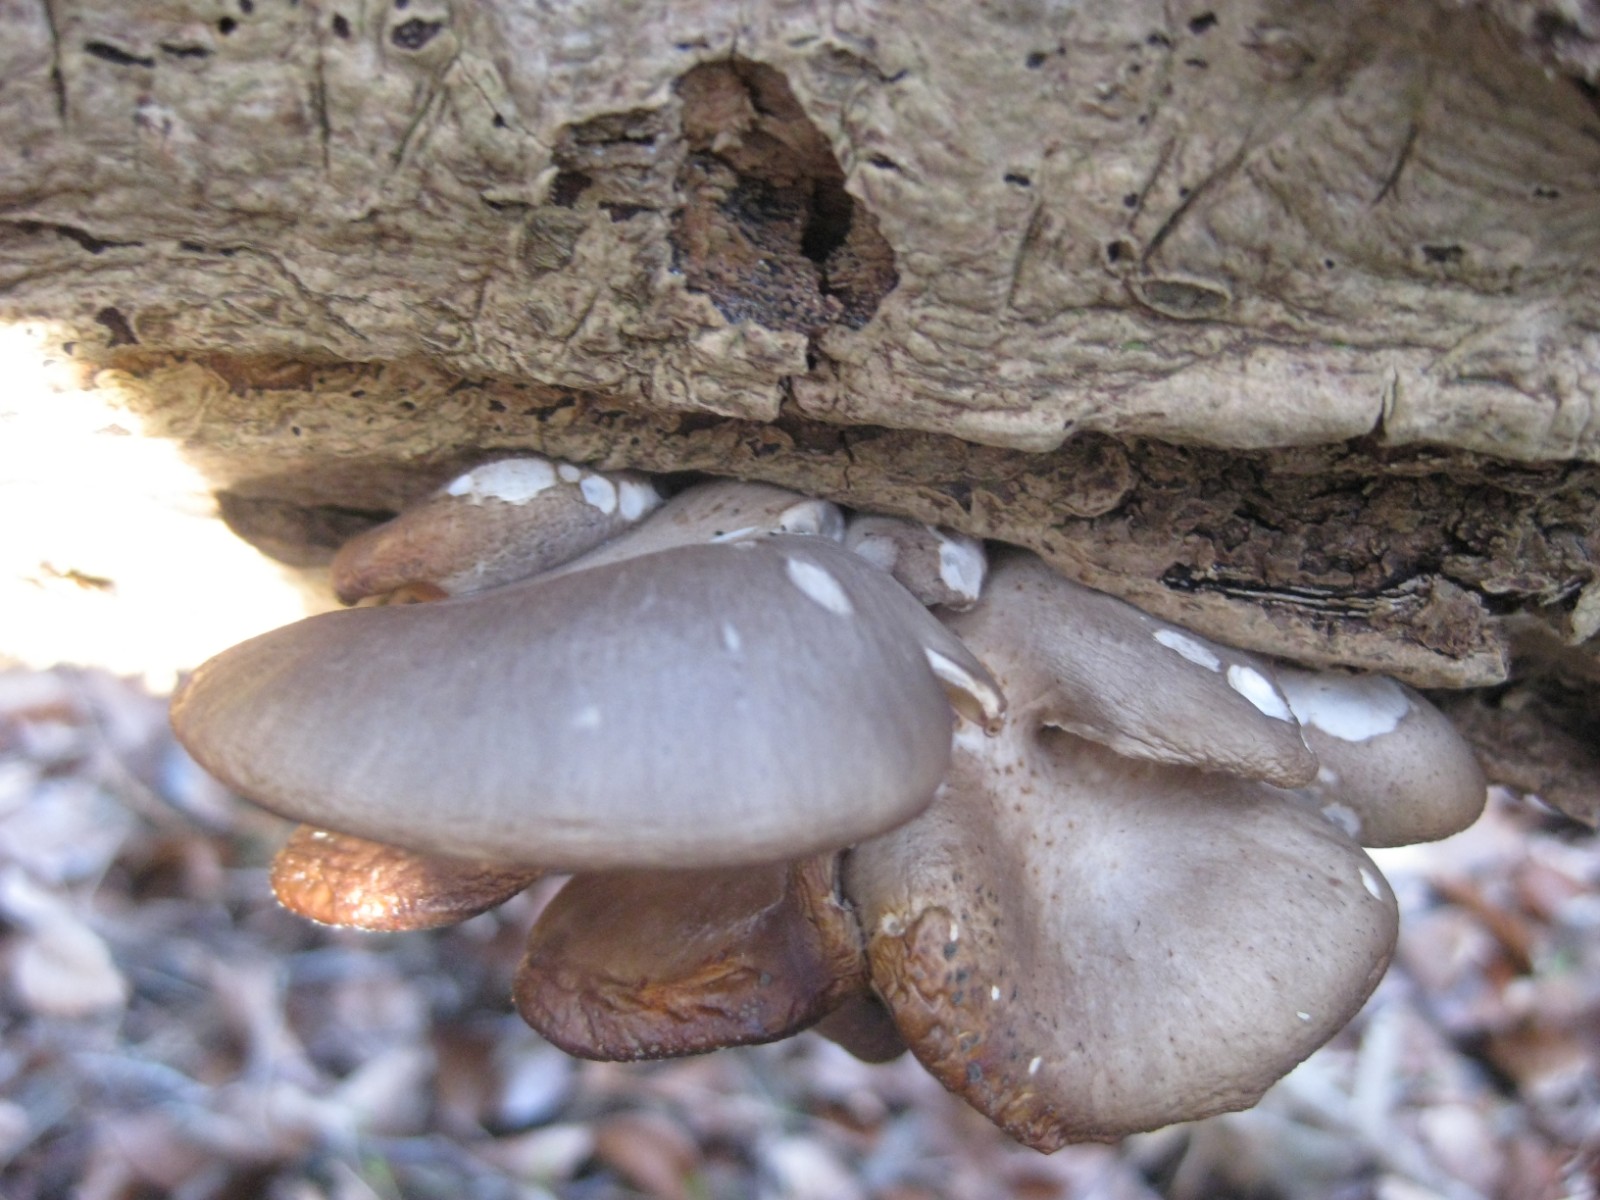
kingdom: Fungi
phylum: Basidiomycota
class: Agaricomycetes
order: Agaricales
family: Pleurotaceae
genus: Pleurotus
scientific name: Pleurotus ostreatus
